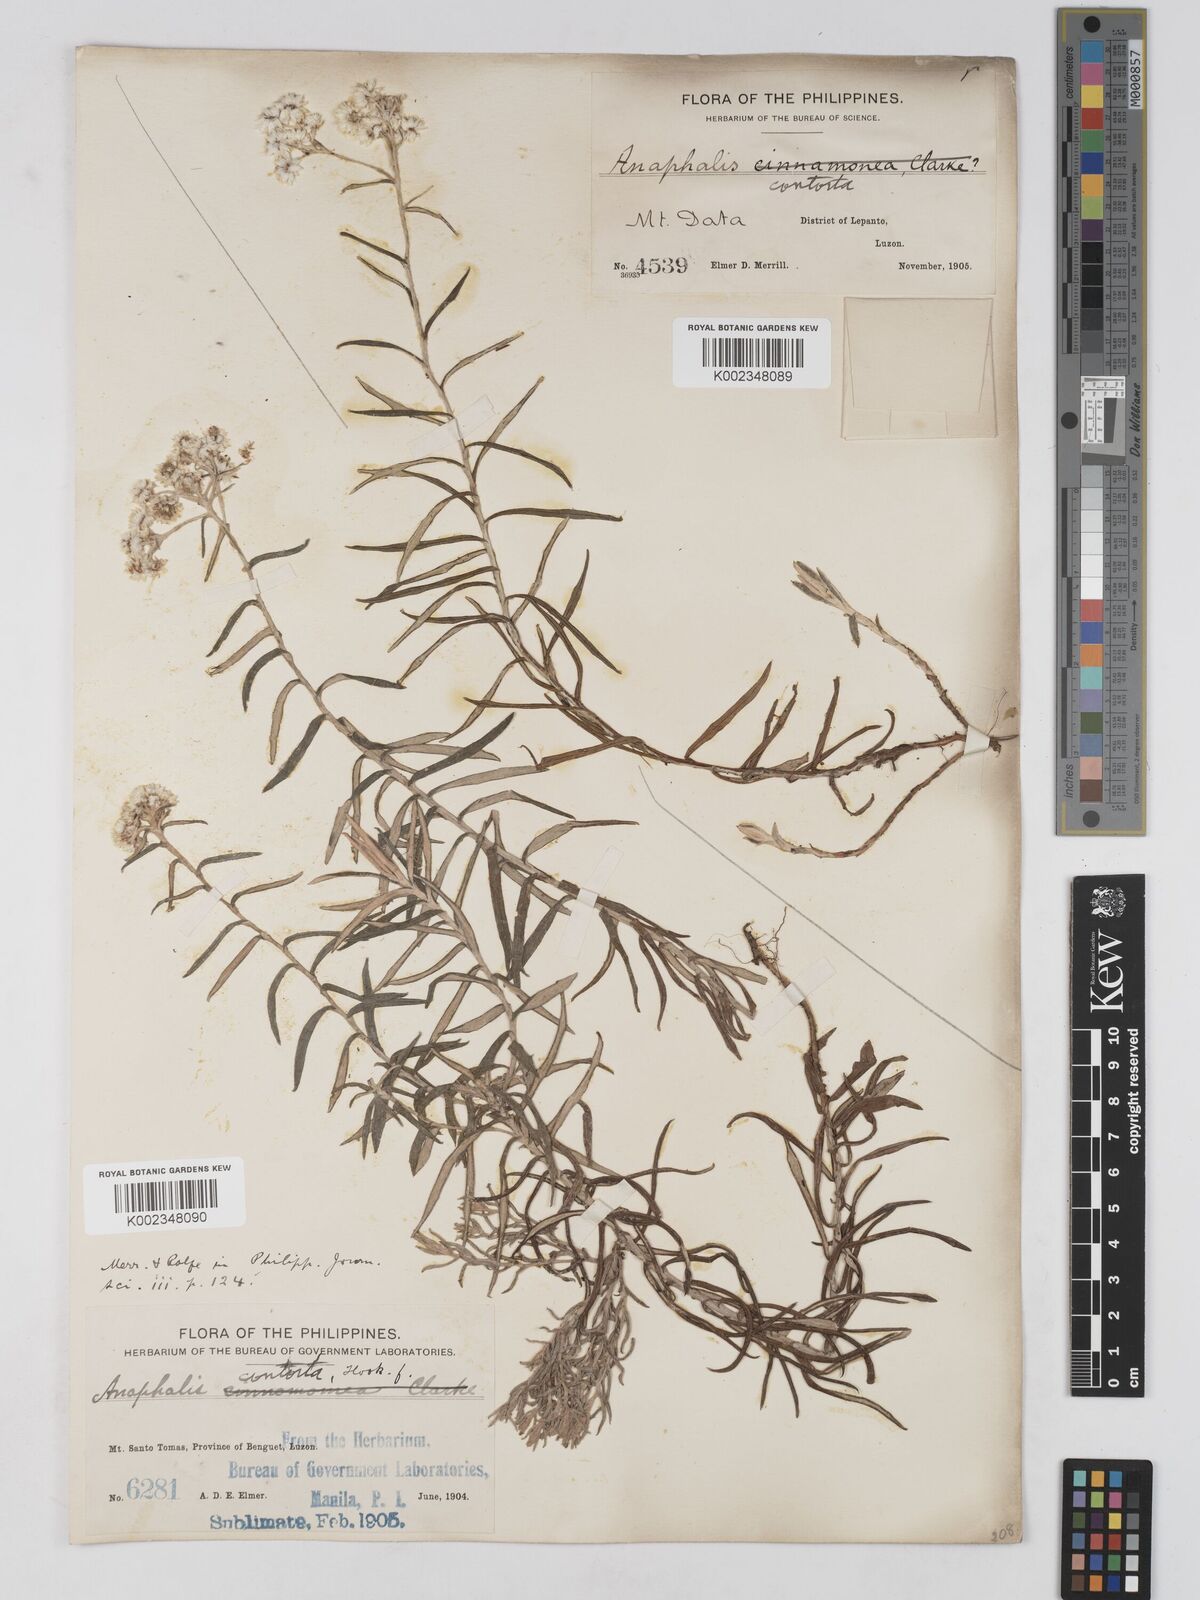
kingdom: Plantae
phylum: Tracheophyta
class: Magnoliopsida
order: Asterales
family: Asteraceae
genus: Anaphalis
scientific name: Anaphalis contorta
